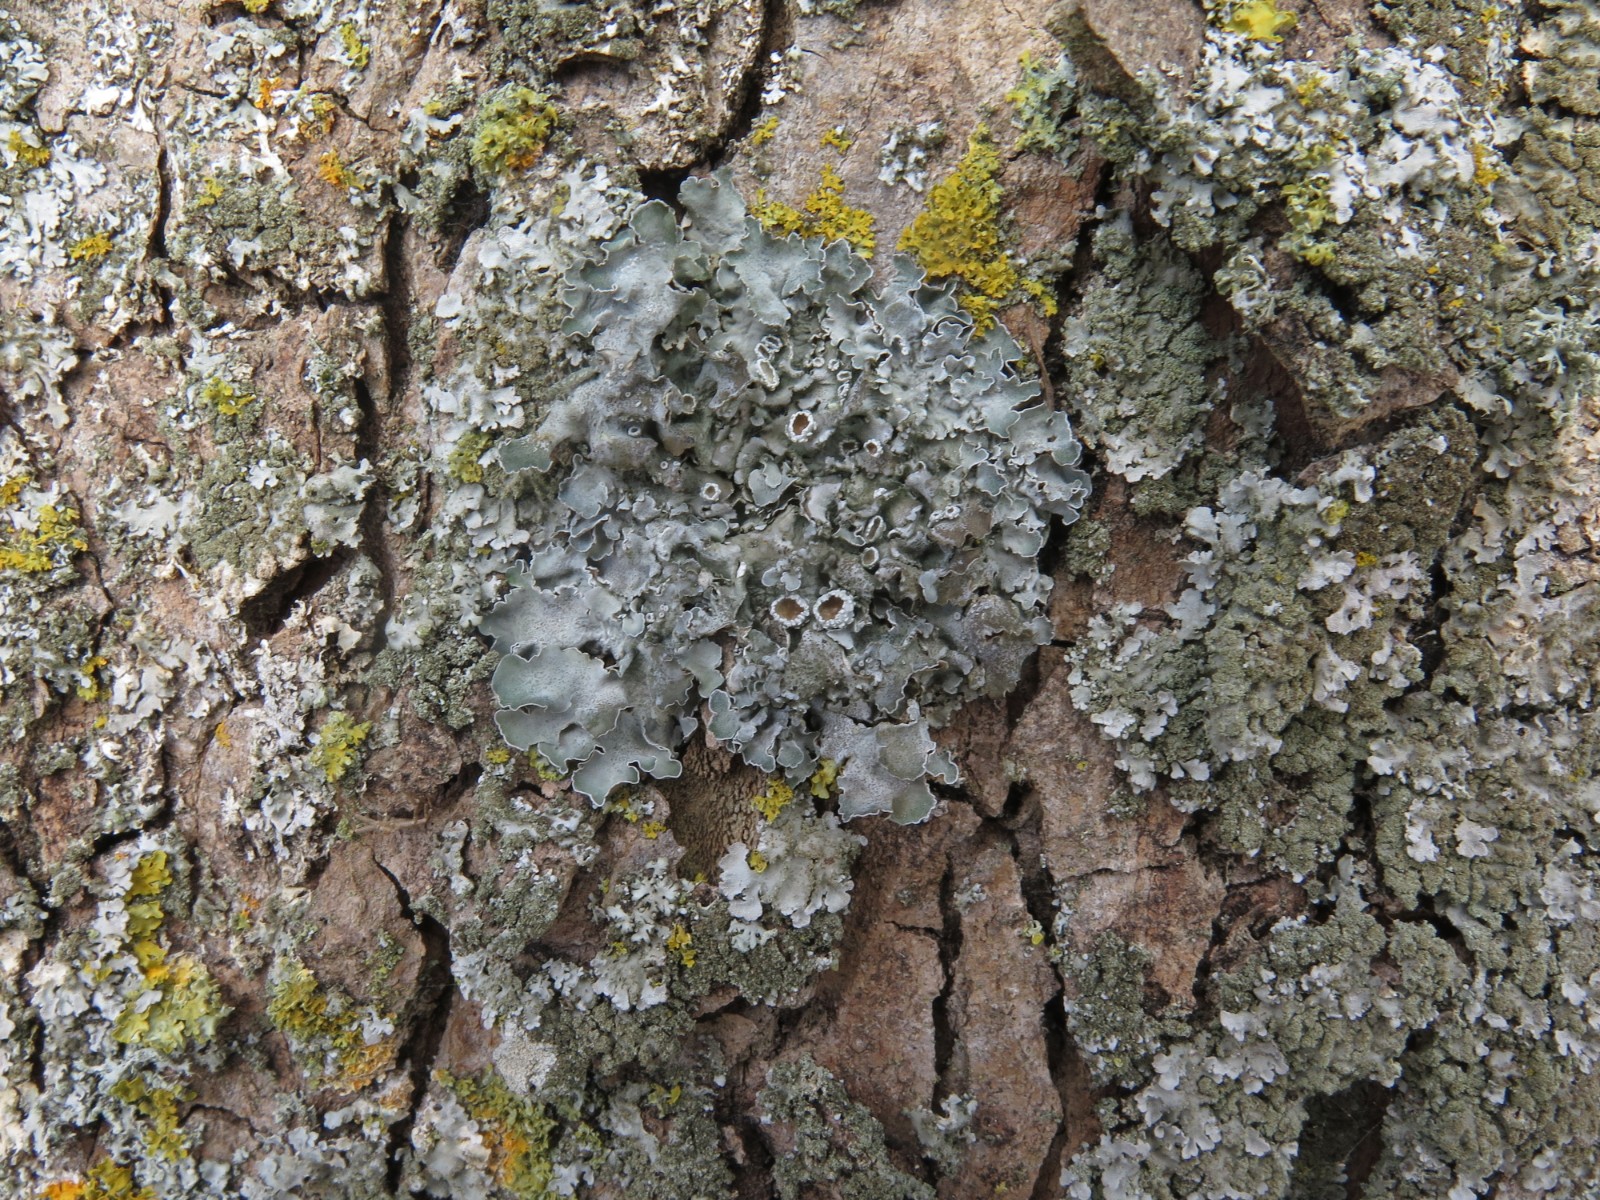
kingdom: Fungi
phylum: Ascomycota
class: Lecanoromycetes
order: Lecanorales
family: Parmeliaceae
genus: Pleurosticta
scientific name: Pleurosticta acetabulum
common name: stor skållav
